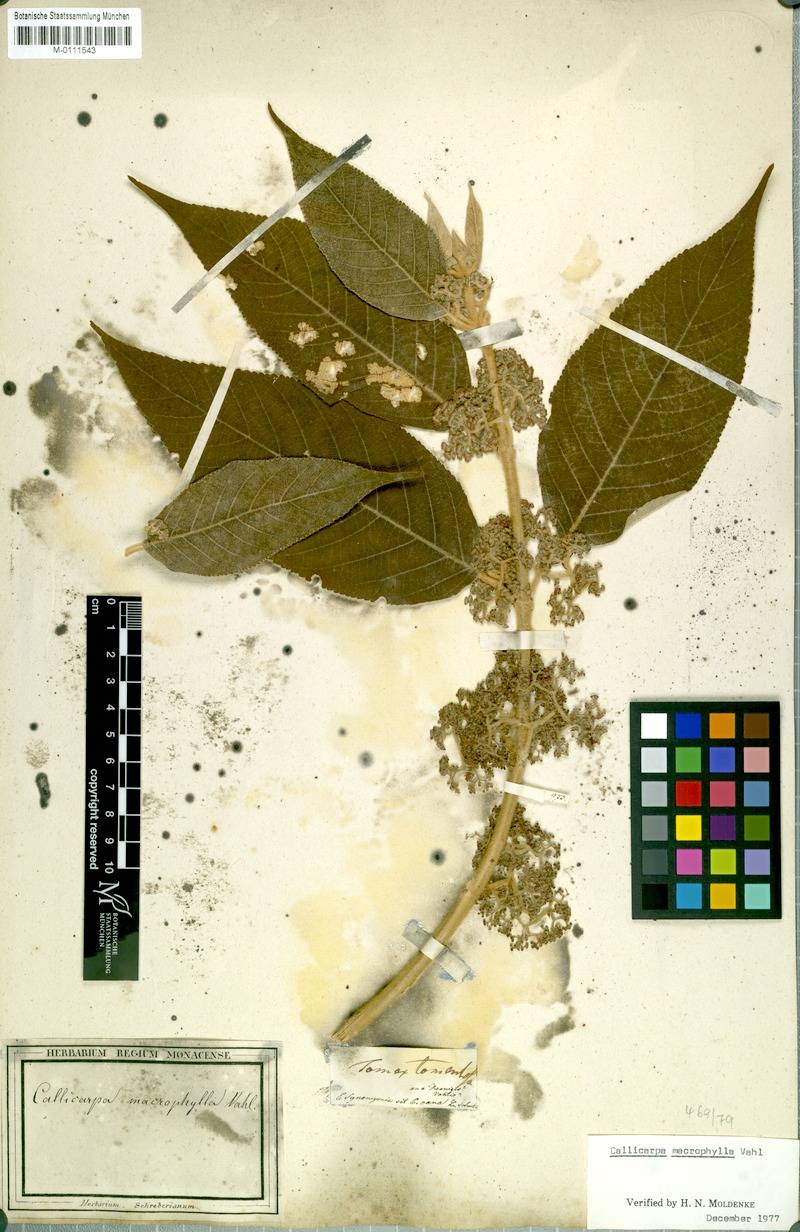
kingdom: Plantae
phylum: Tracheophyta
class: Magnoliopsida
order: Lamiales
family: Lamiaceae
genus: Callicarpa
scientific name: Callicarpa macrophylla
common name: Urn-fruit beauty-berry
